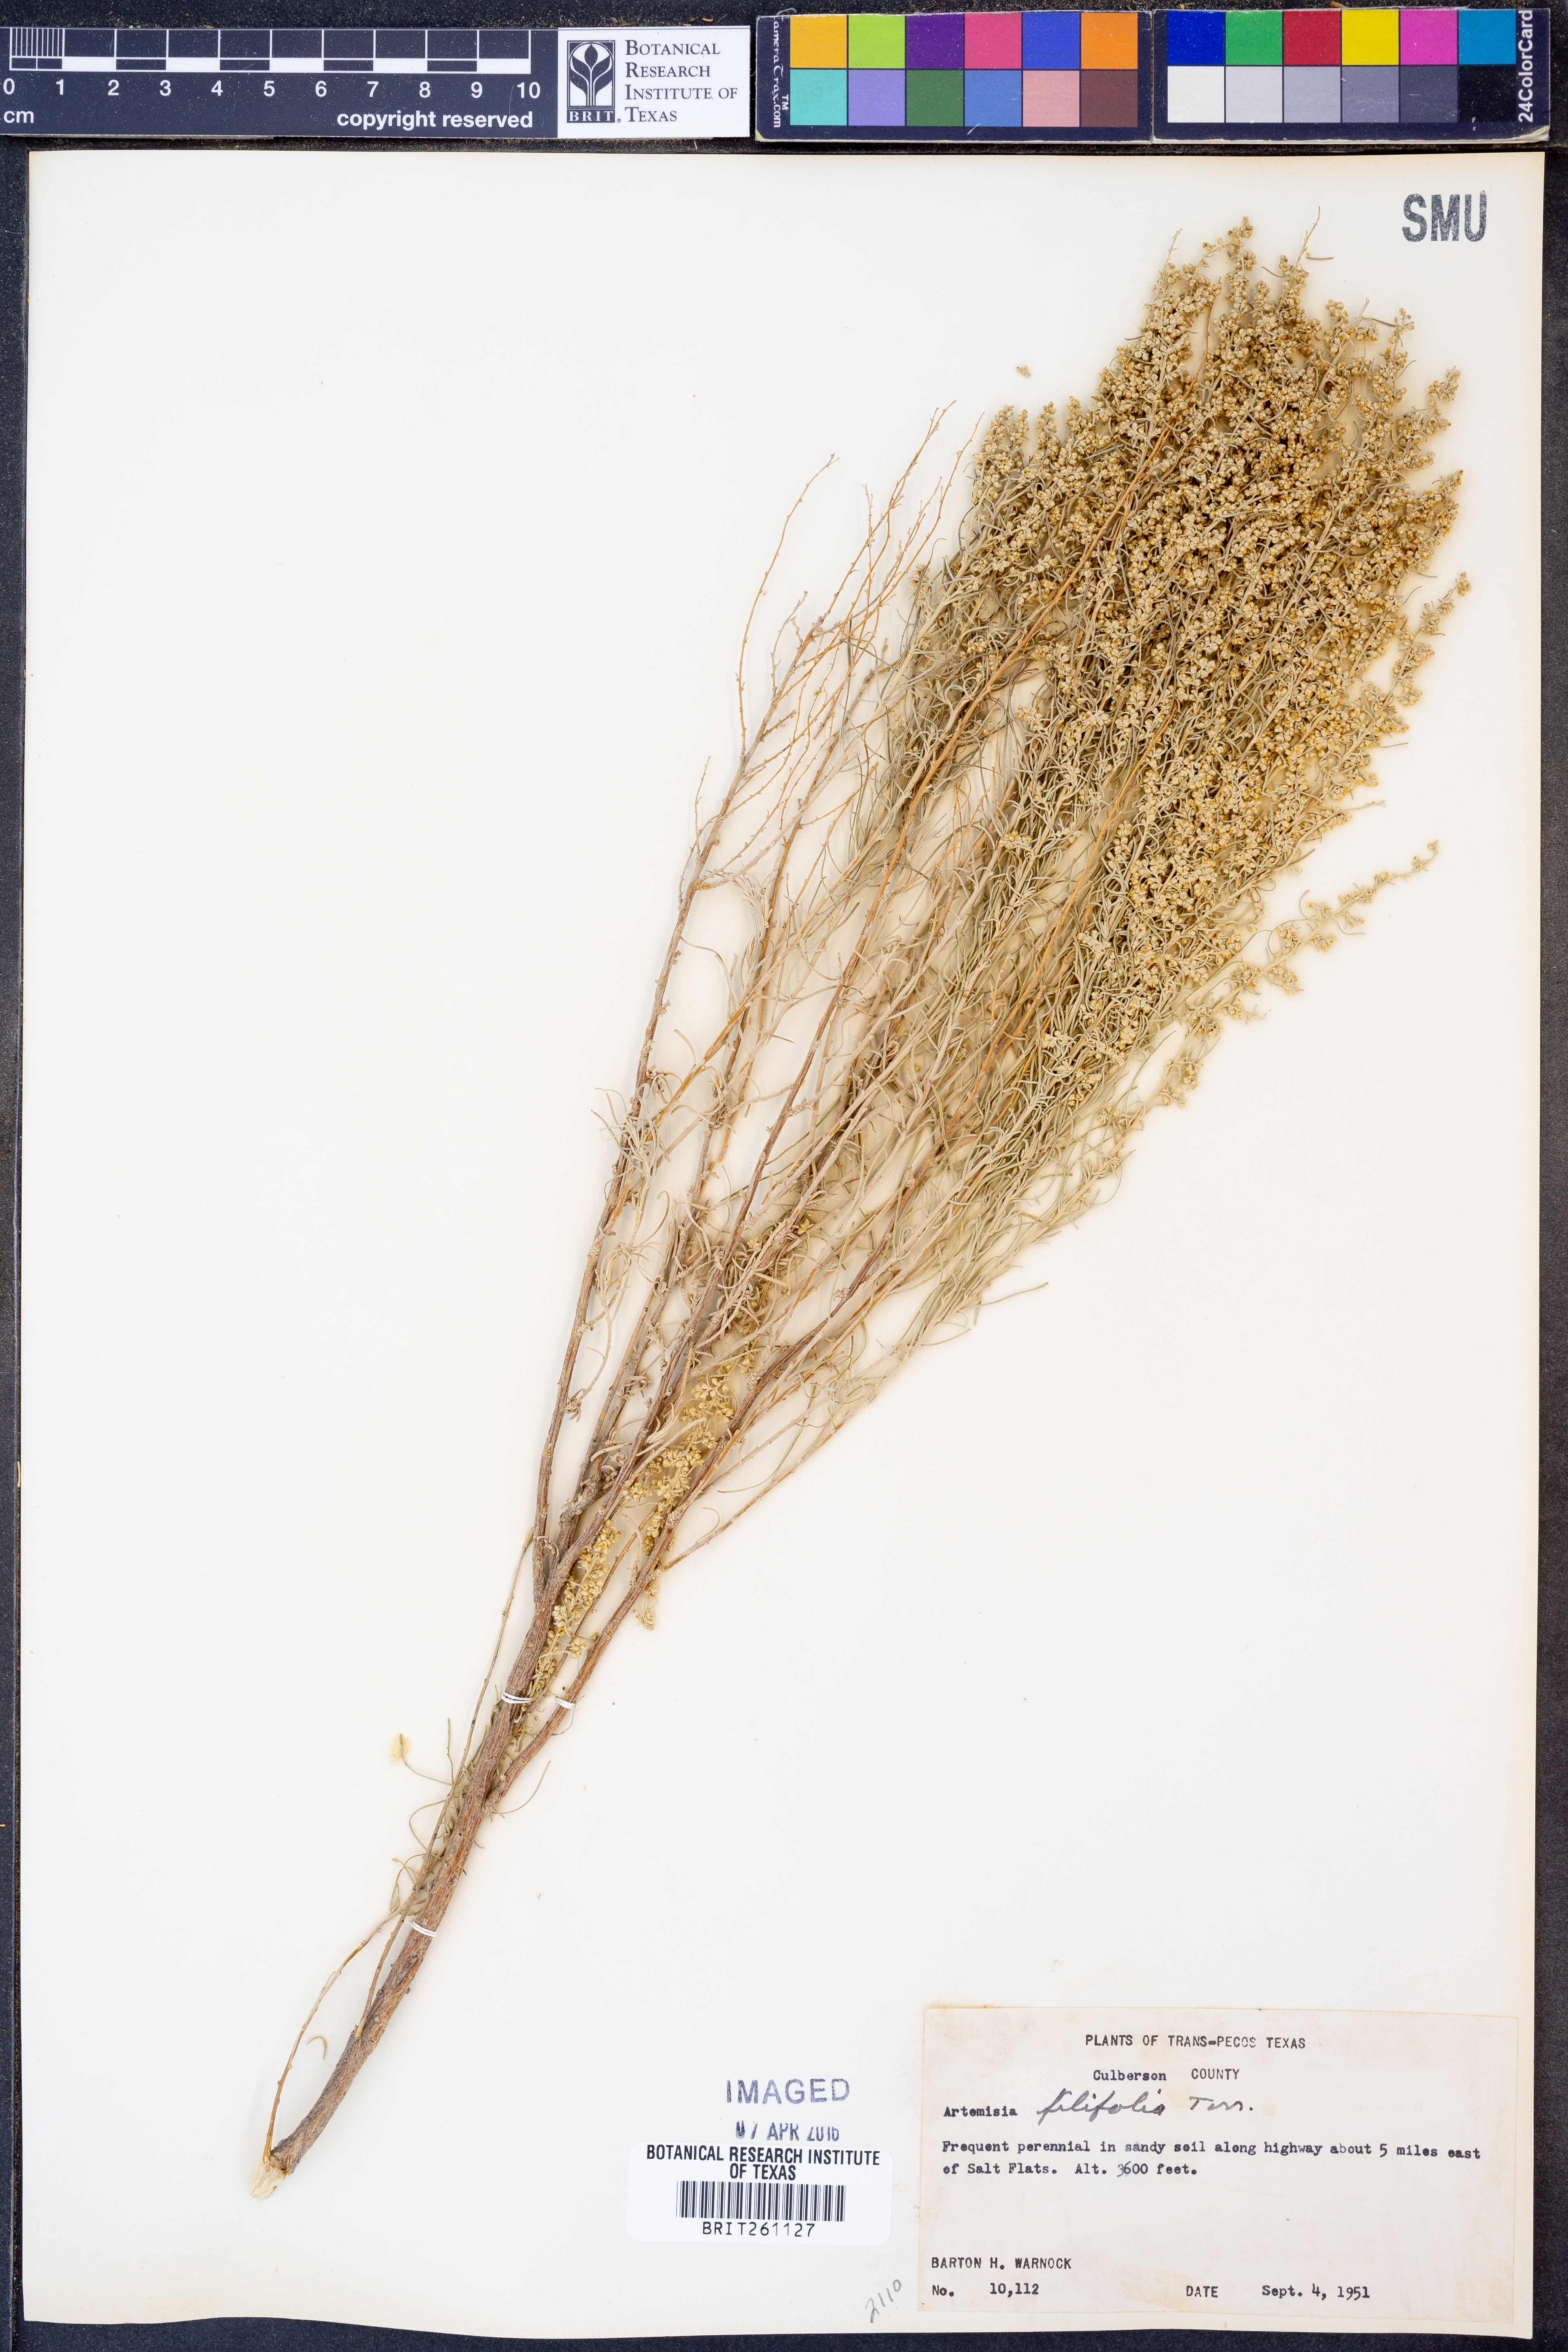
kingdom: Plantae
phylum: Tracheophyta
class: Magnoliopsida
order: Asterales
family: Asteraceae
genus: Artemisia
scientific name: Artemisia filifolia
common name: Sand-sage
